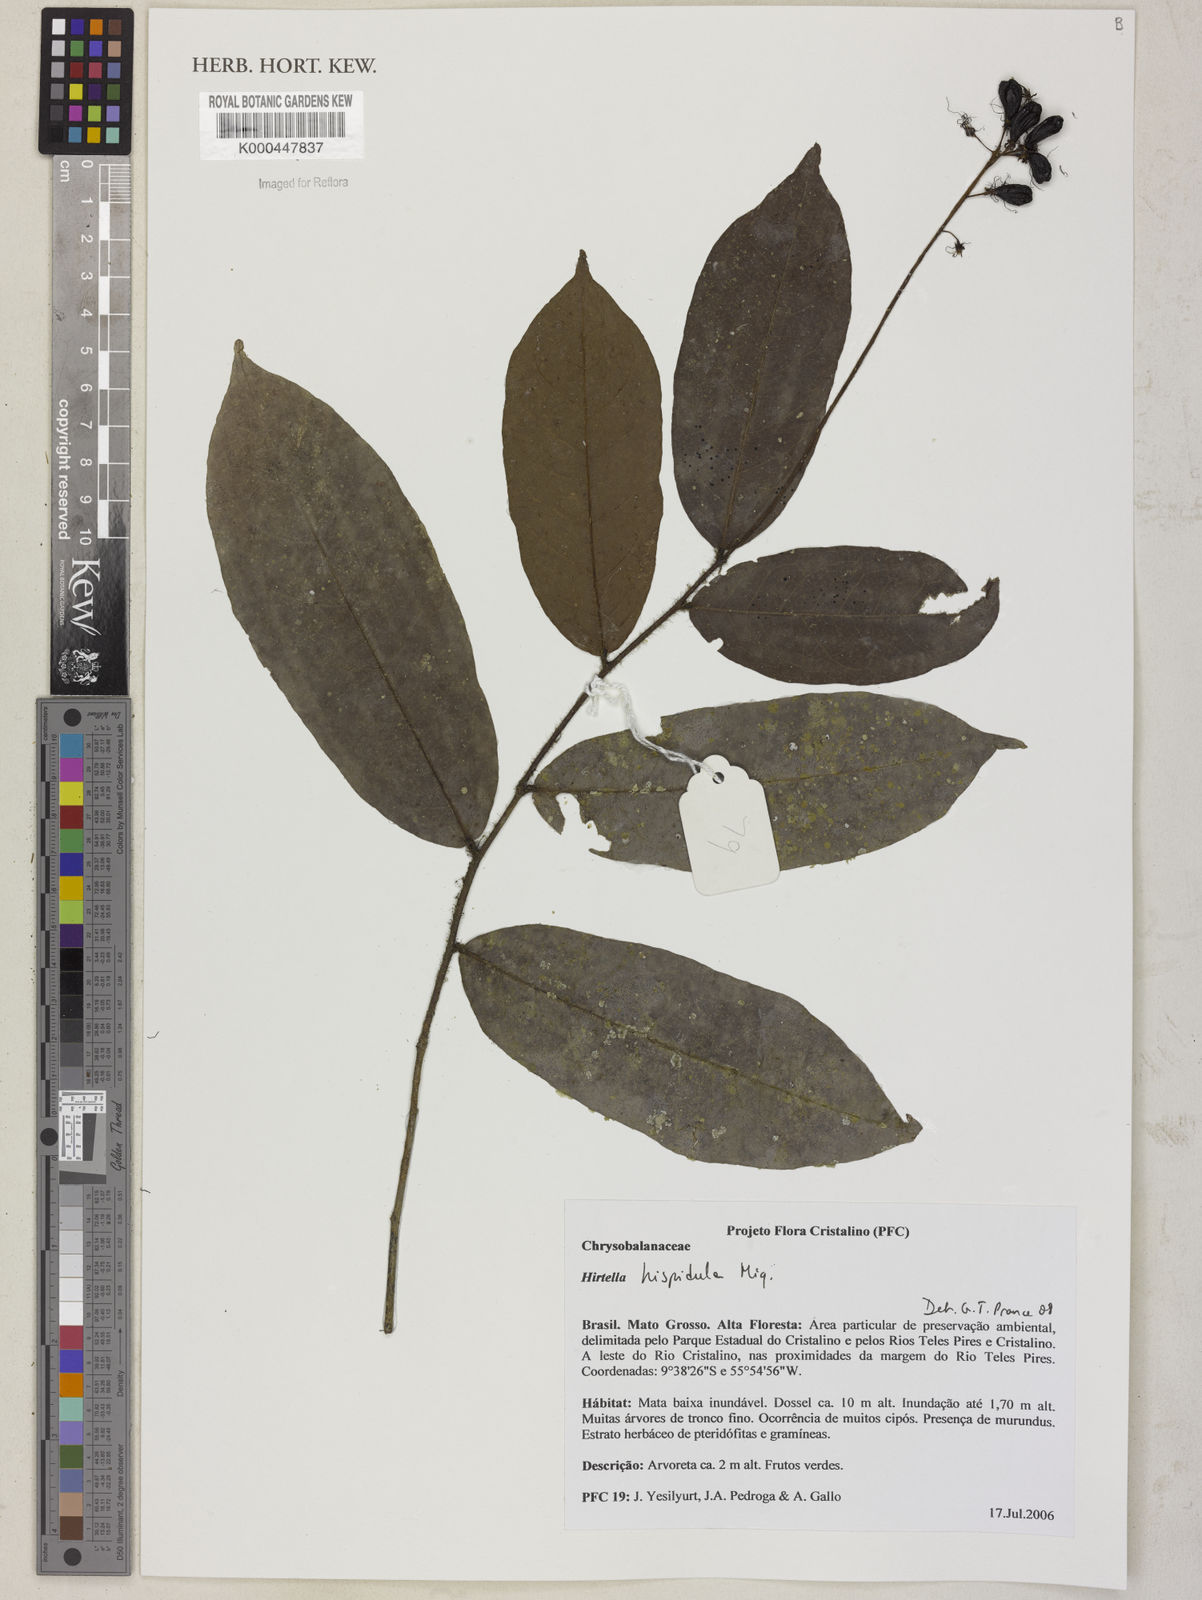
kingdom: Plantae
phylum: Tracheophyta
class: Magnoliopsida
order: Malpighiales
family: Chrysobalanaceae
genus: Hirtella
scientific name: Hirtella hispidula
